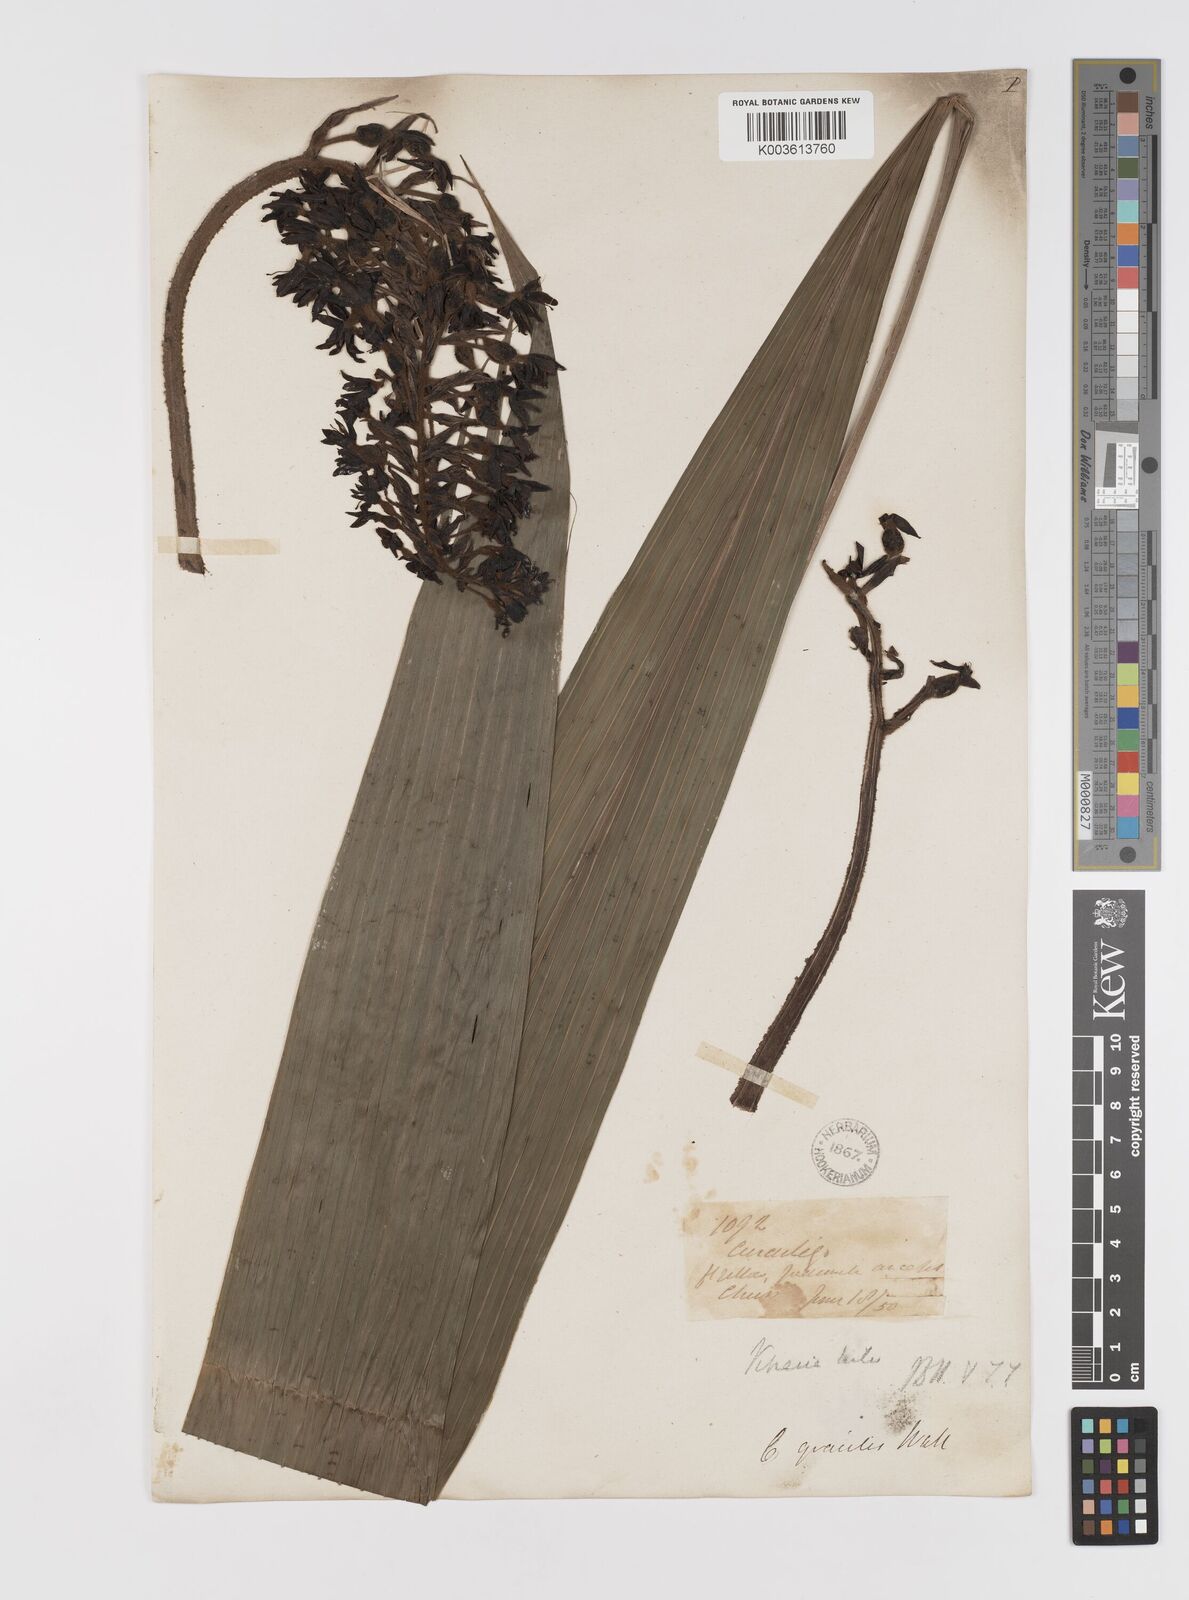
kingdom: Plantae
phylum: Tracheophyta
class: Liliopsida
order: Asparagales
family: Hypoxidaceae
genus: Curculigo
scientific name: Curculigo gracilis
